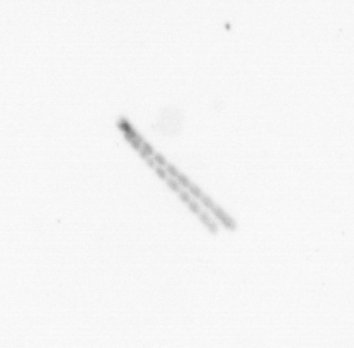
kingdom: Chromista
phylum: Ochrophyta
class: Bacillariophyceae
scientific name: Bacillariophyceae
